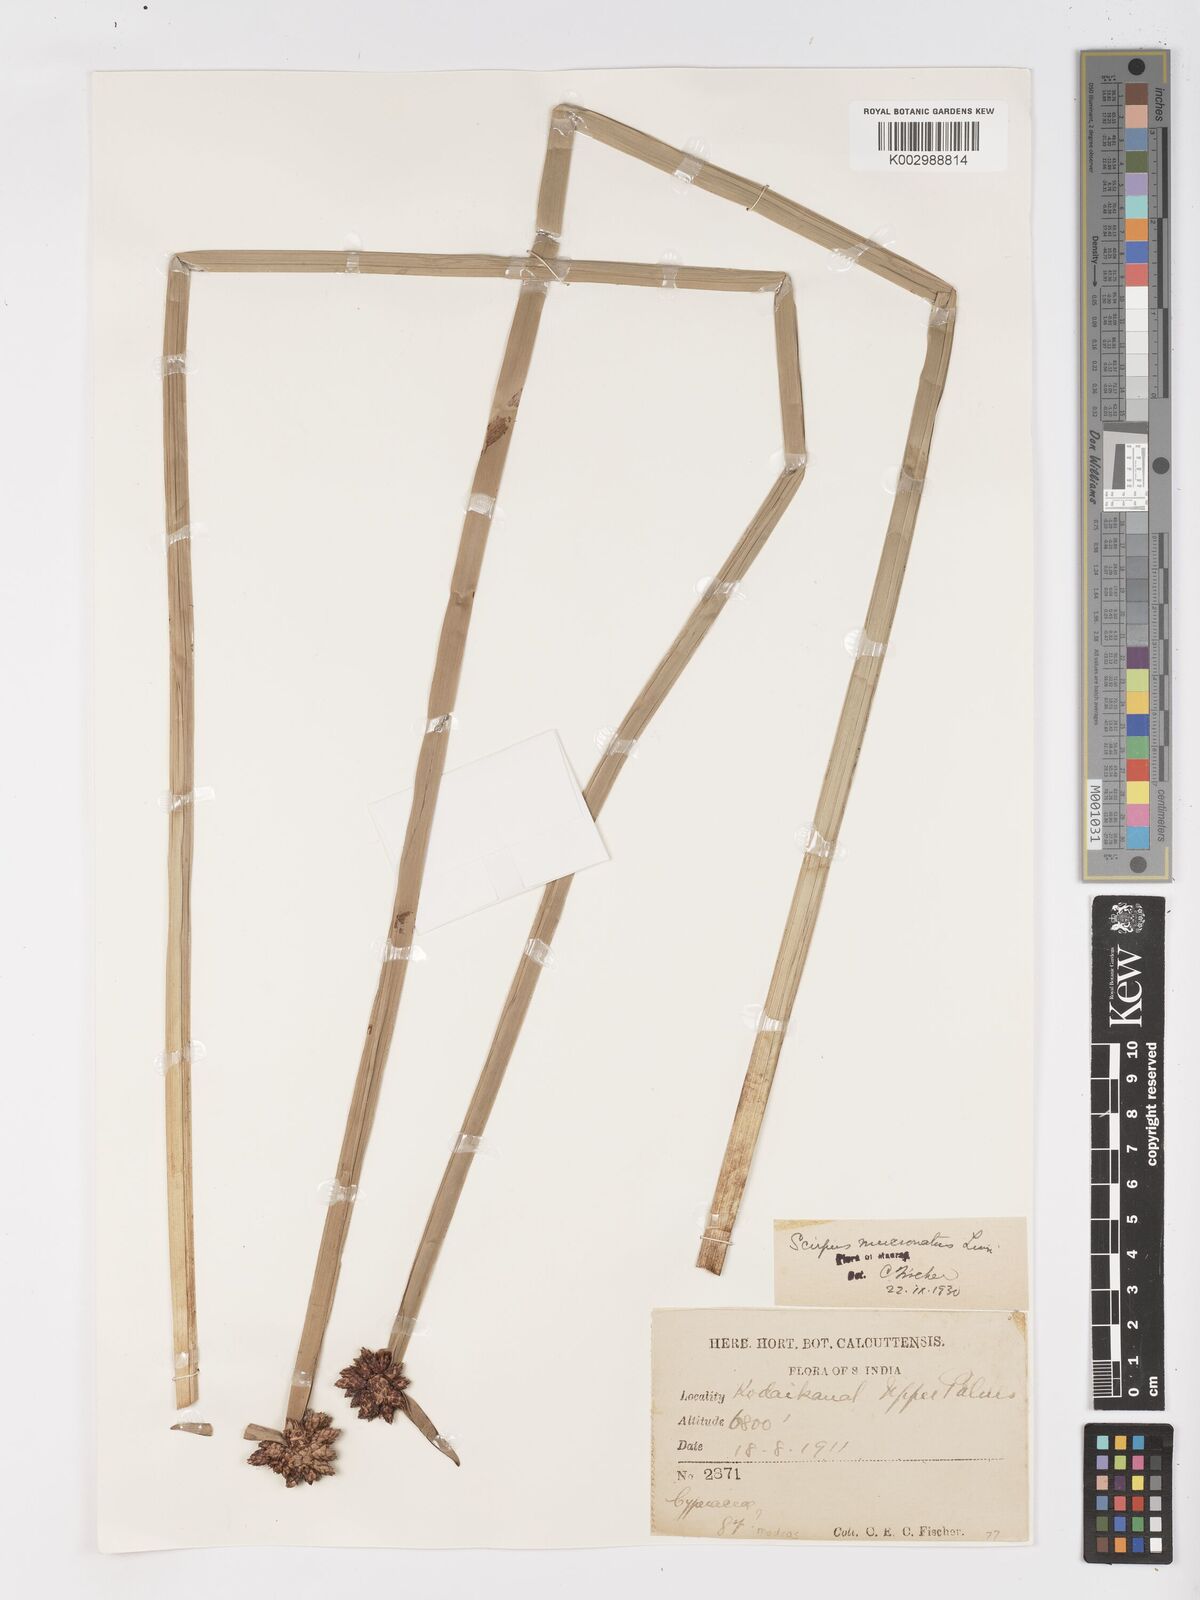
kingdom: Plantae
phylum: Tracheophyta
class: Liliopsida
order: Poales
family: Cyperaceae
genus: Schoenoplectiella
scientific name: Schoenoplectiella mucronata
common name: Bog bulrush
